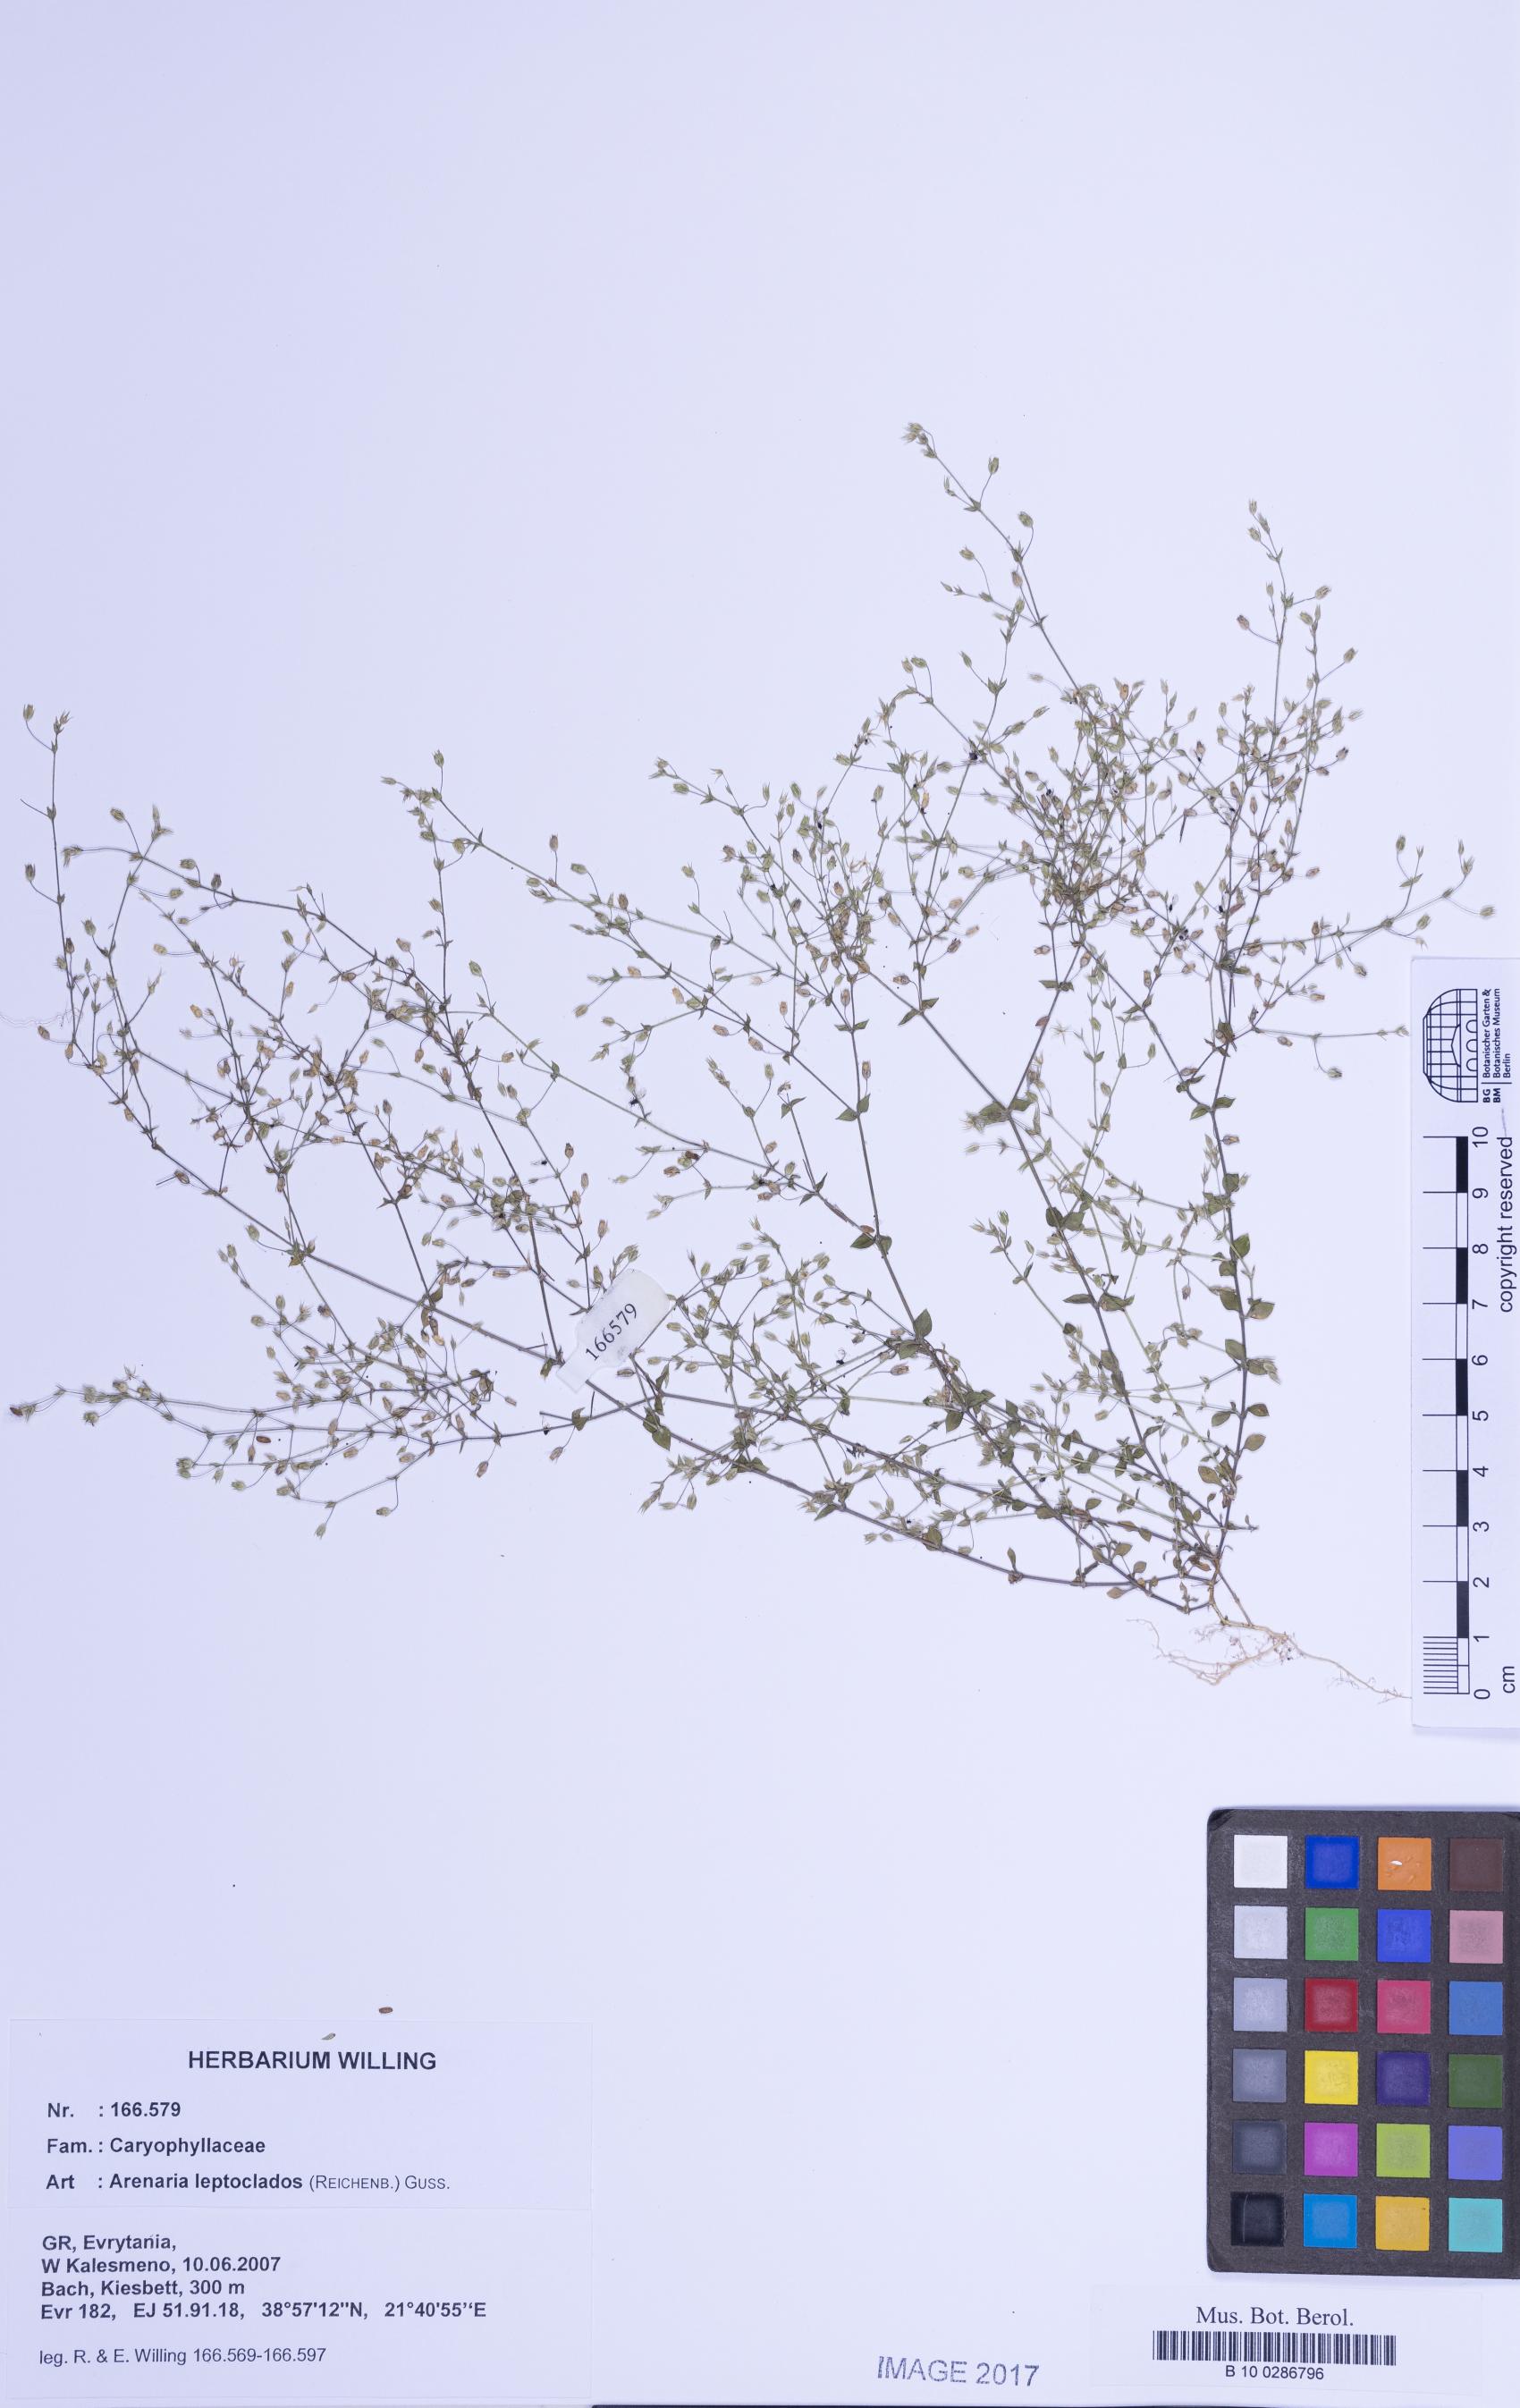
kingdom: Plantae
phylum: Tracheophyta
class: Magnoliopsida
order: Caryophyllales
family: Caryophyllaceae
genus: Arenaria
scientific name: Arenaria leptoclados
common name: Thyme-leaved sandwort
